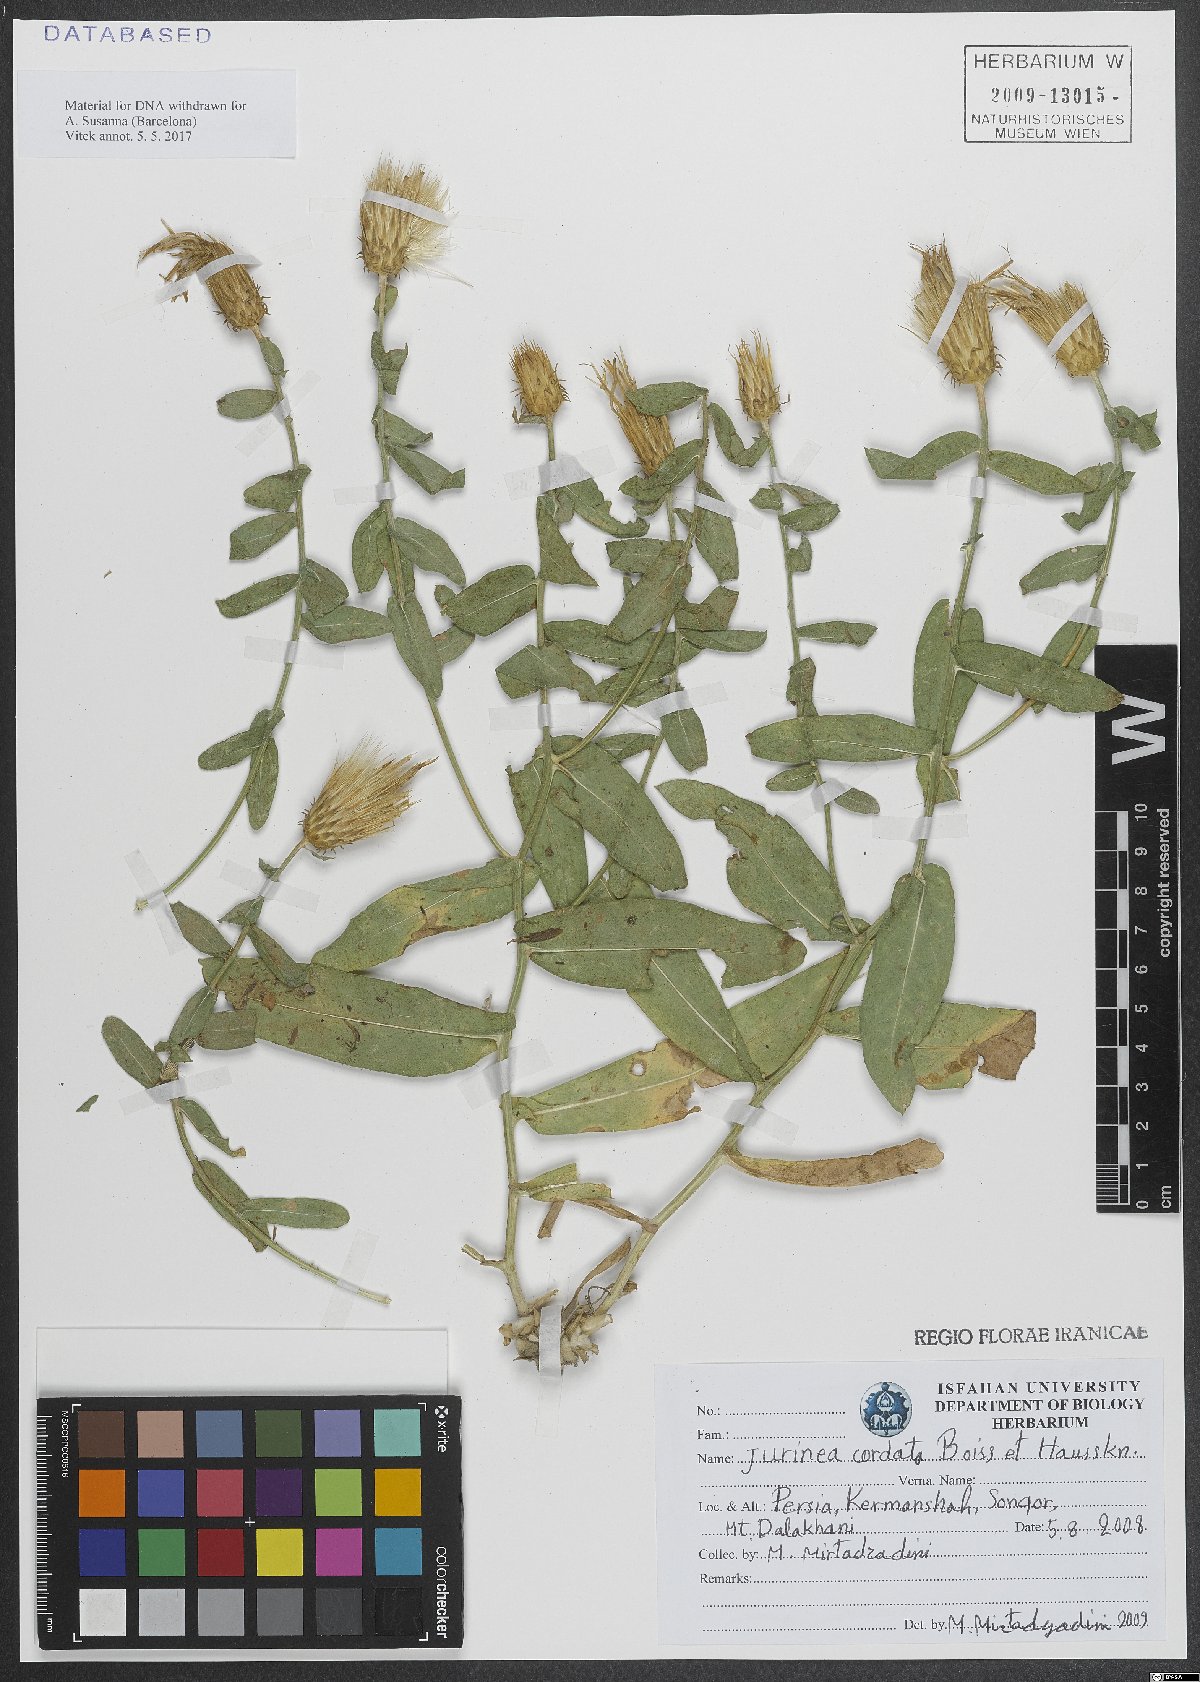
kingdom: Plantae
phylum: Tracheophyta
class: Magnoliopsida
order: Asterales
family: Asteraceae
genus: Jurinea
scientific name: Jurinea cordata
